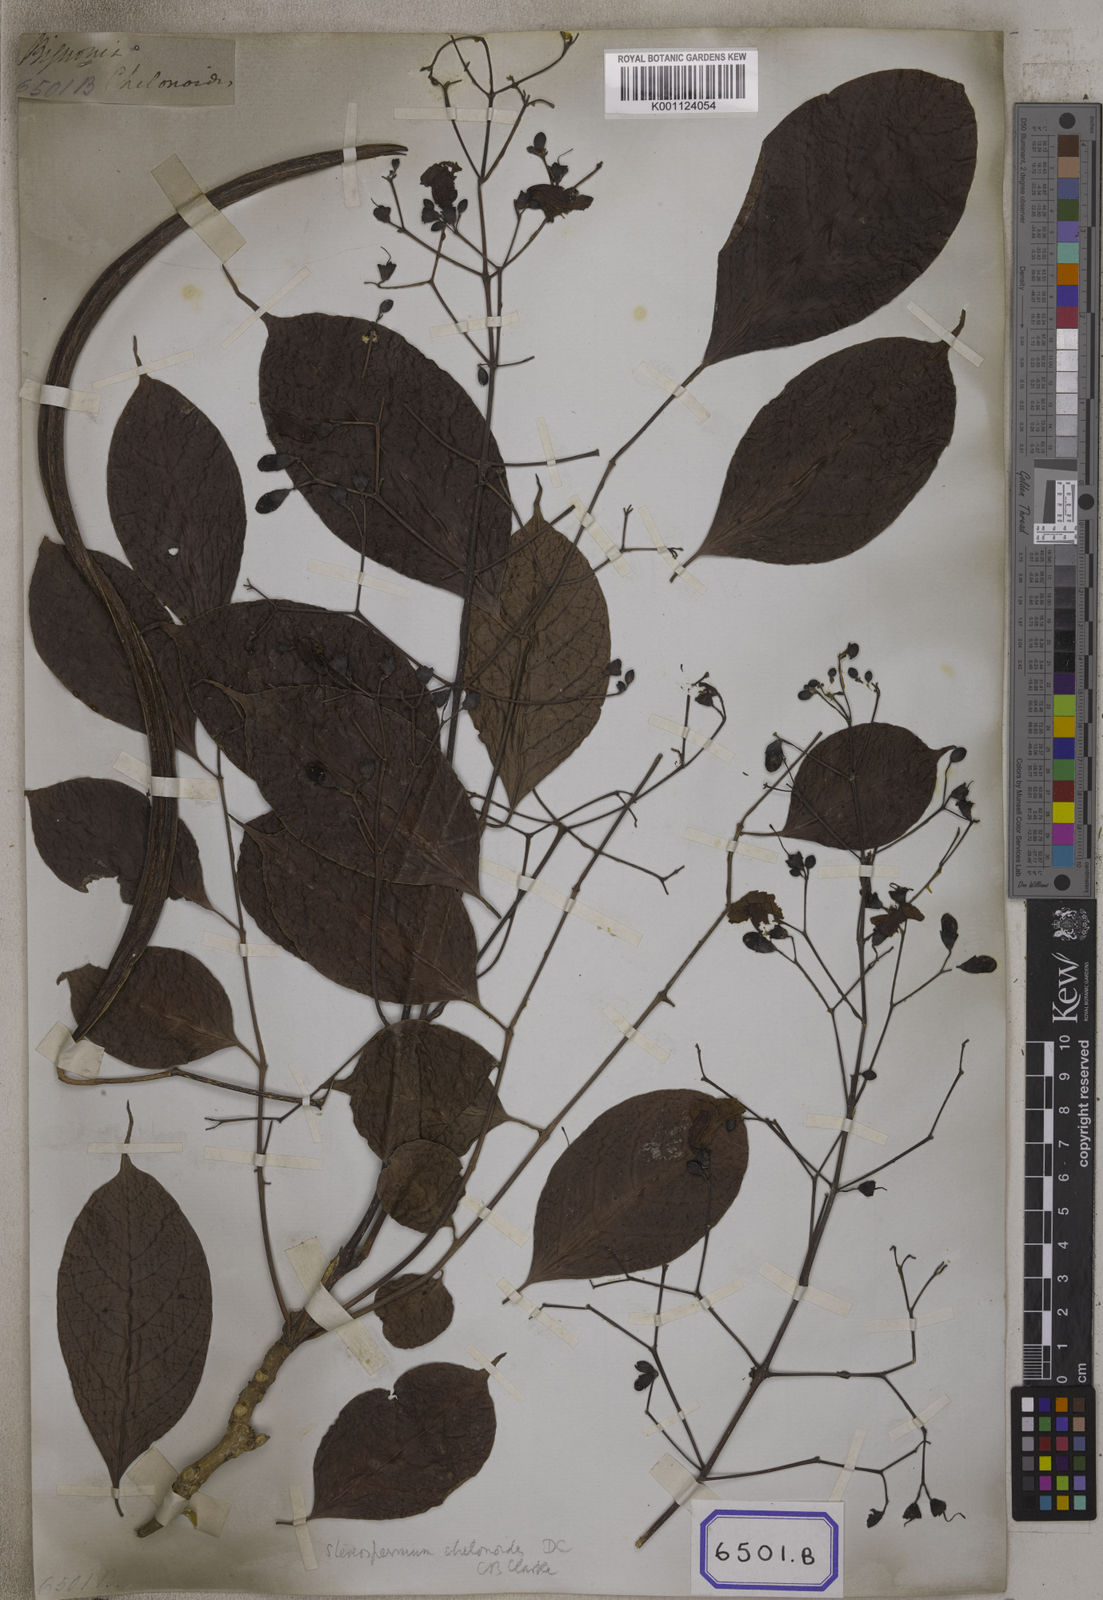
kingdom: Plantae
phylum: Tracheophyta
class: Magnoliopsida
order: Lamiales
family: Bignoniaceae
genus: Stereospermum
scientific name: Stereospermum chelonoides
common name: Fragrant padritree
